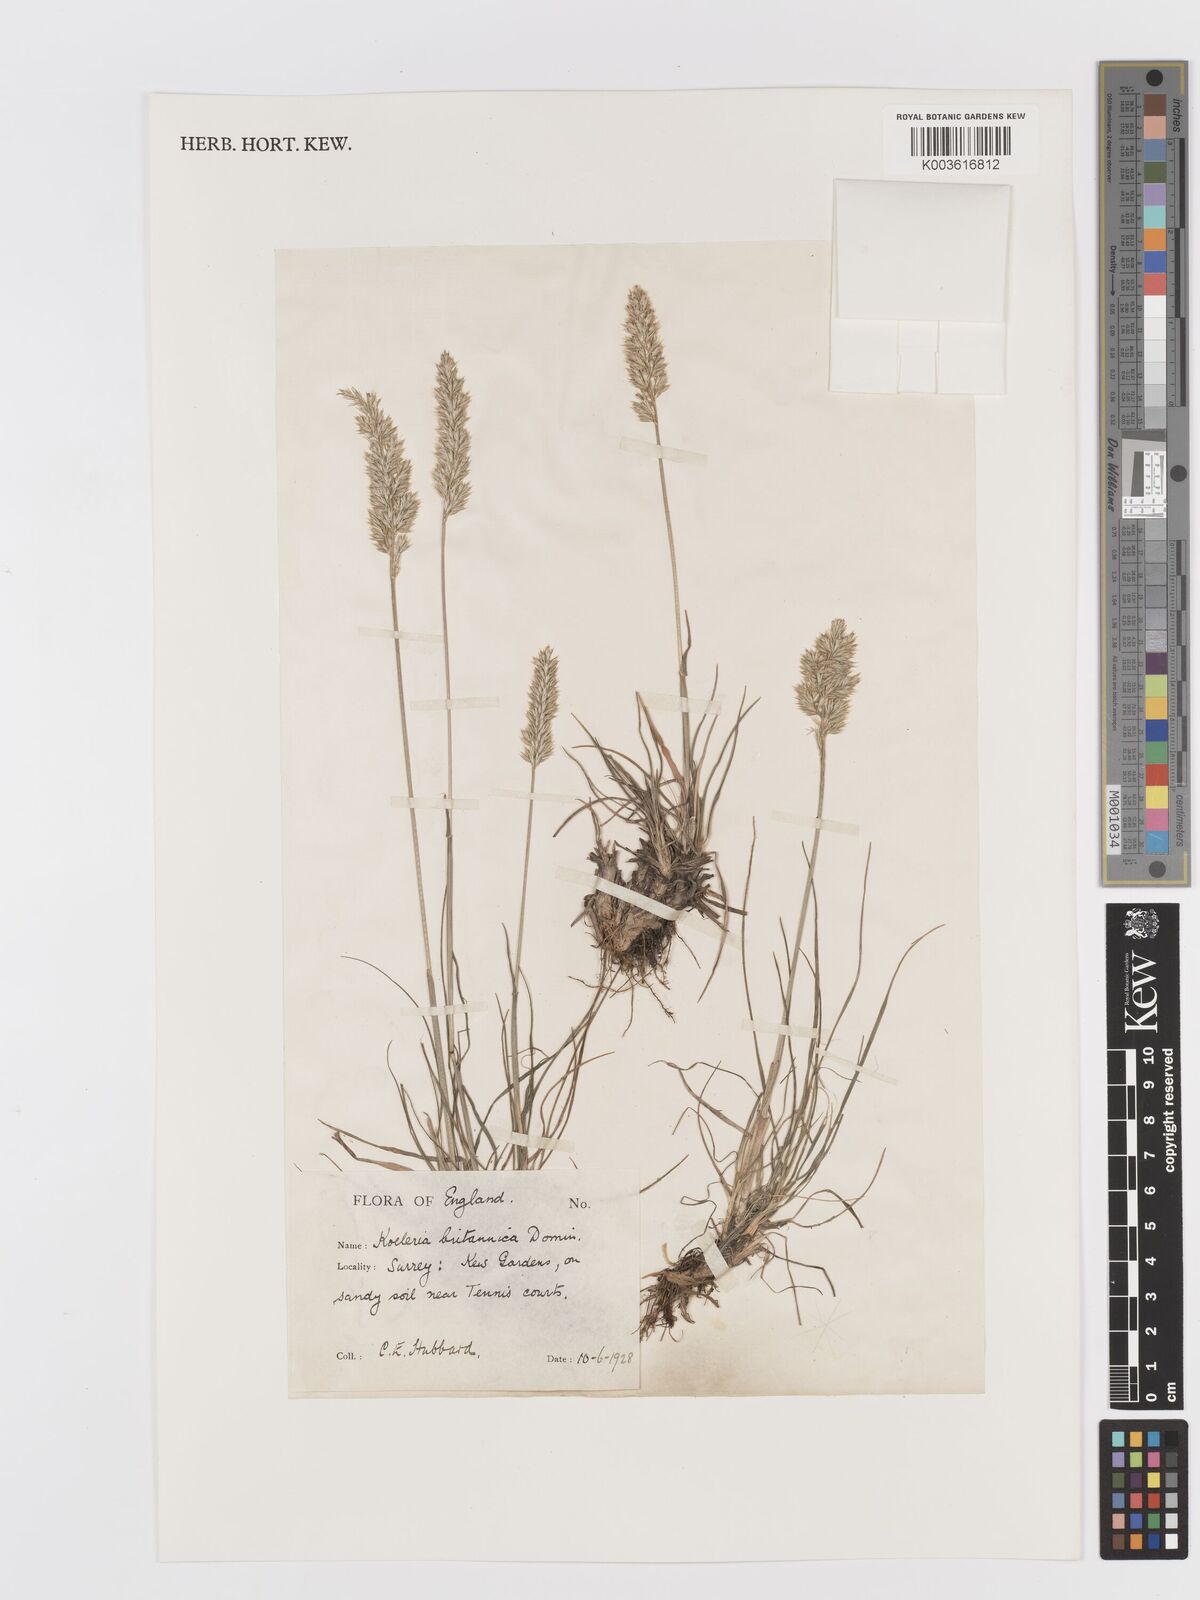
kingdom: Plantae
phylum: Tracheophyta
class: Liliopsida
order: Poales
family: Poaceae
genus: Koeleria
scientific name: Koeleria macrantha
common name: Crested hair-grass
